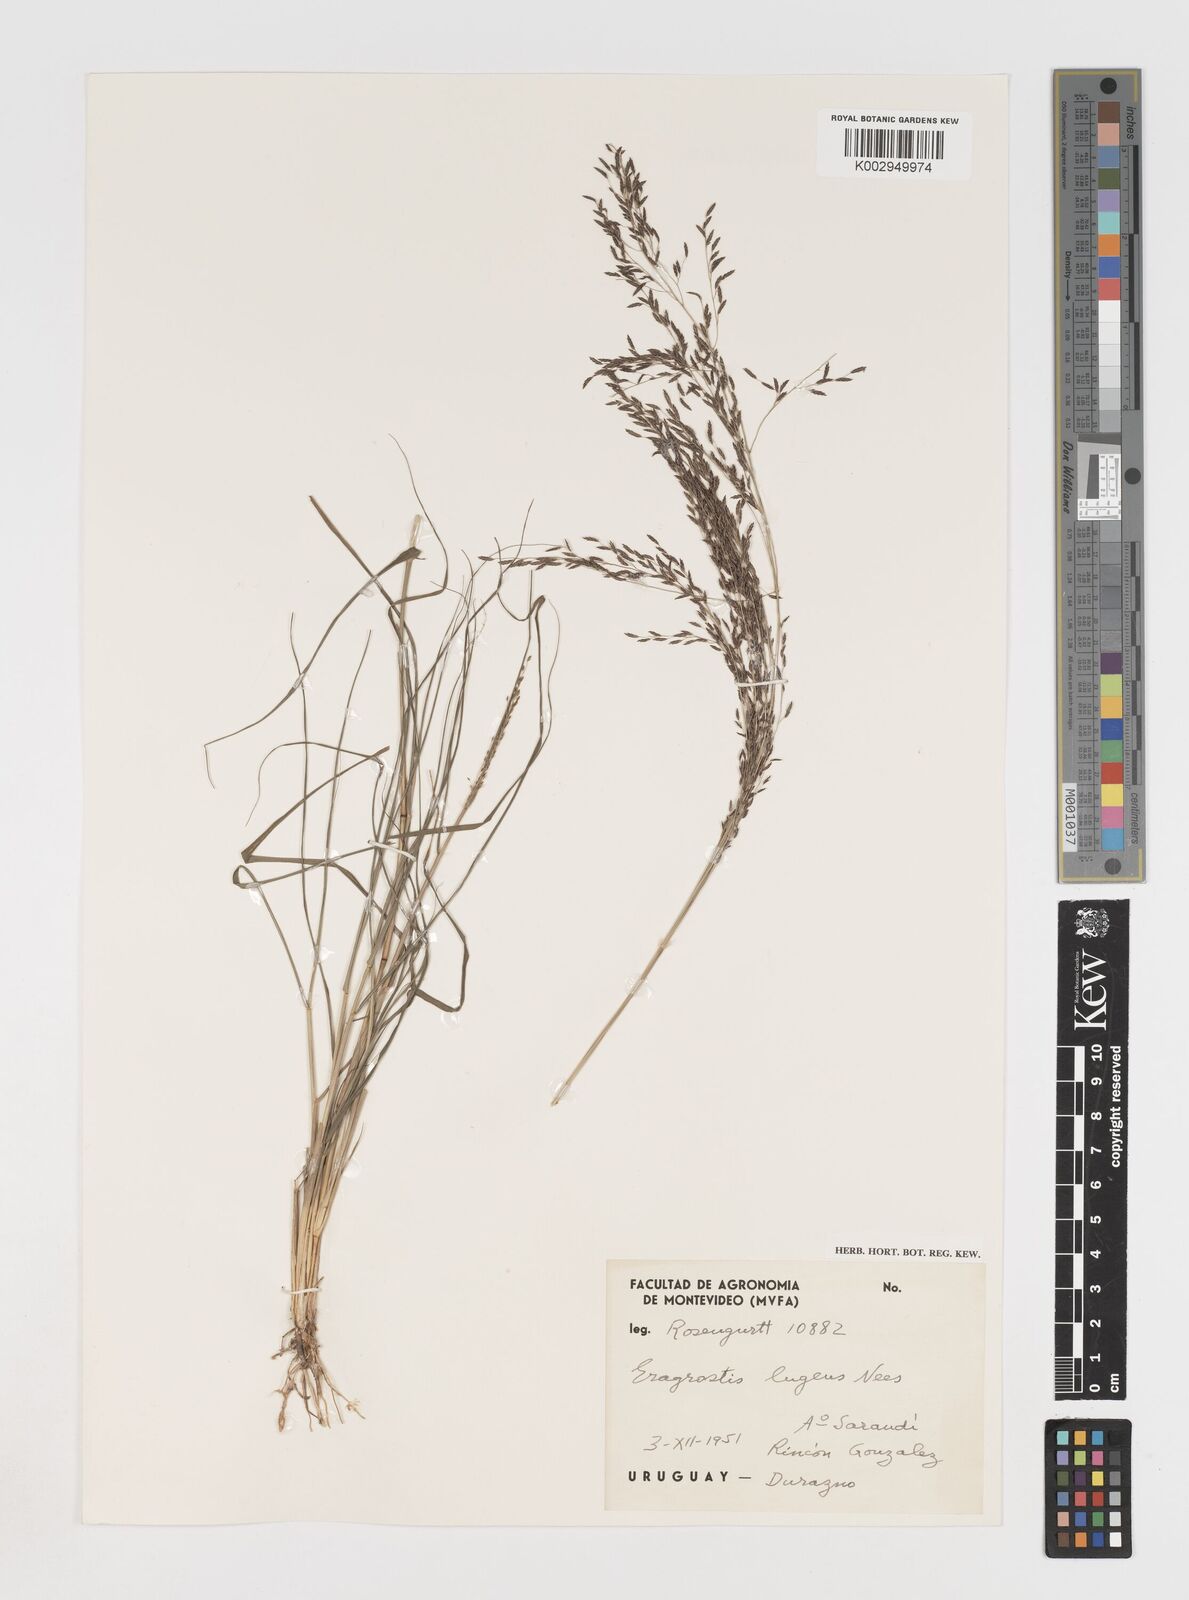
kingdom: Plantae
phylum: Tracheophyta
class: Liliopsida
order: Poales
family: Poaceae
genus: Eragrostis
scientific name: Eragrostis
